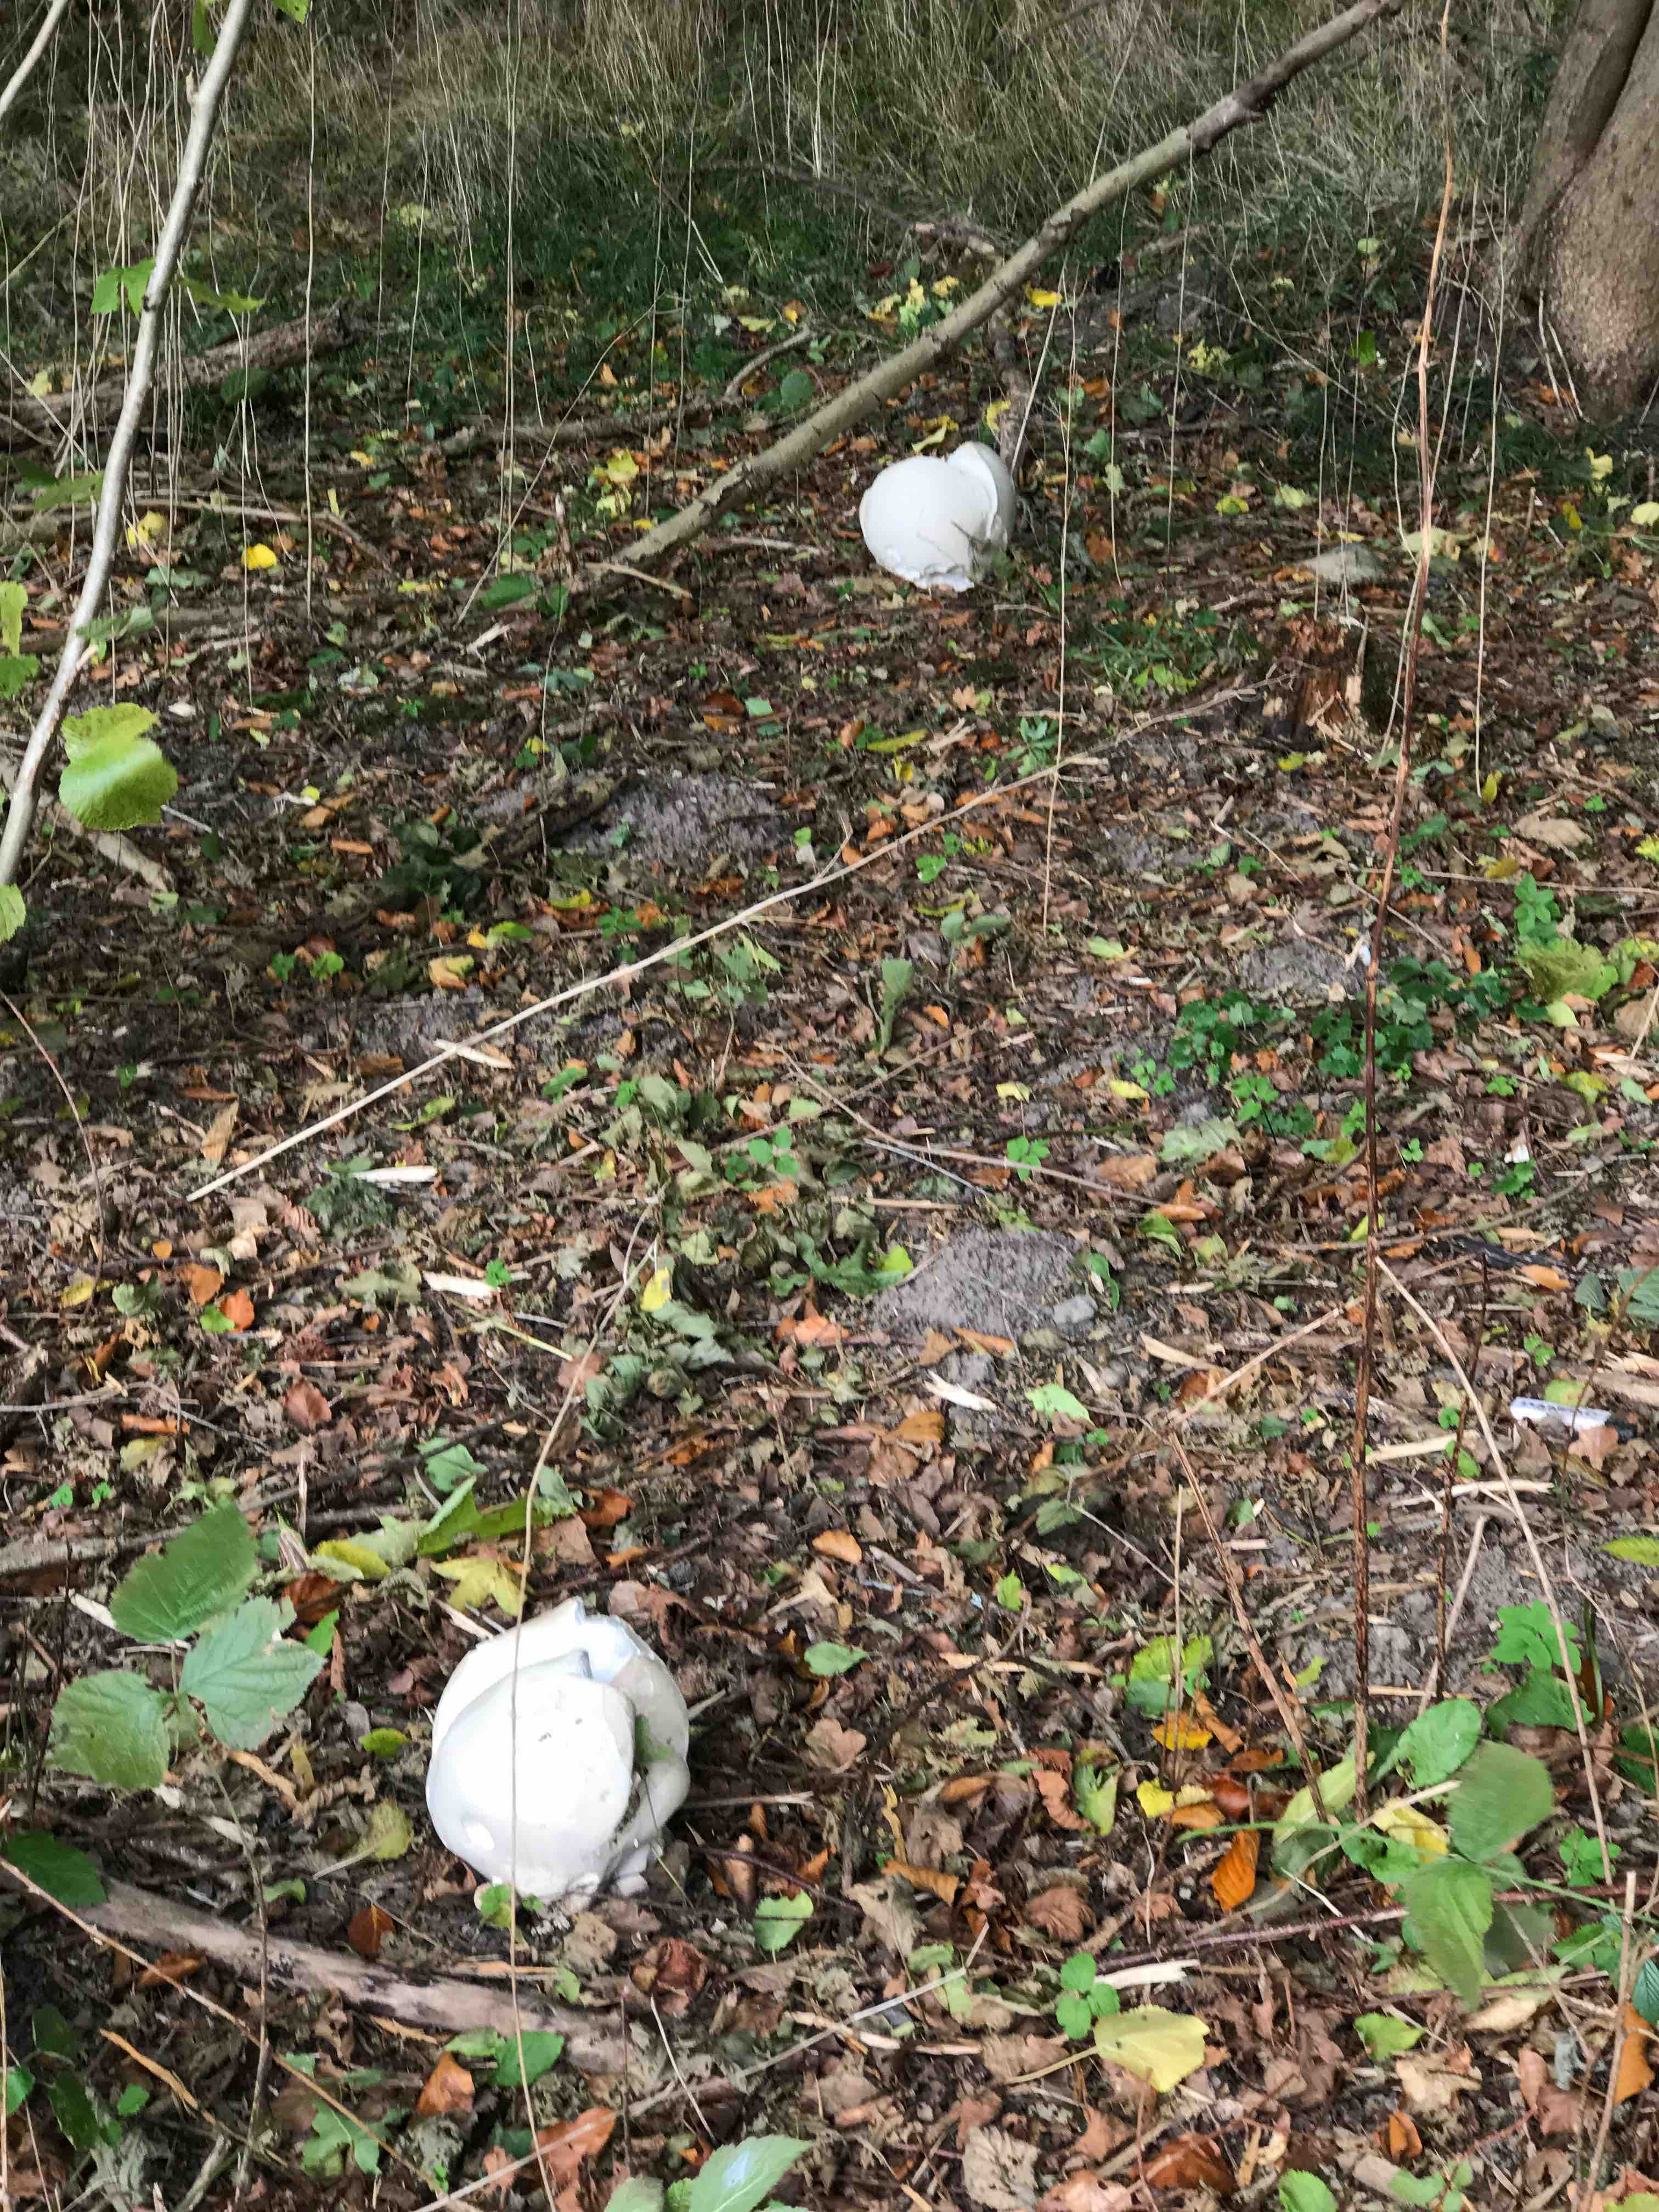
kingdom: Fungi
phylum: Basidiomycota
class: Agaricomycetes
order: Agaricales
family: Lycoperdaceae
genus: Calvatia
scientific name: Calvatia gigantea
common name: kæmpestøvbold
